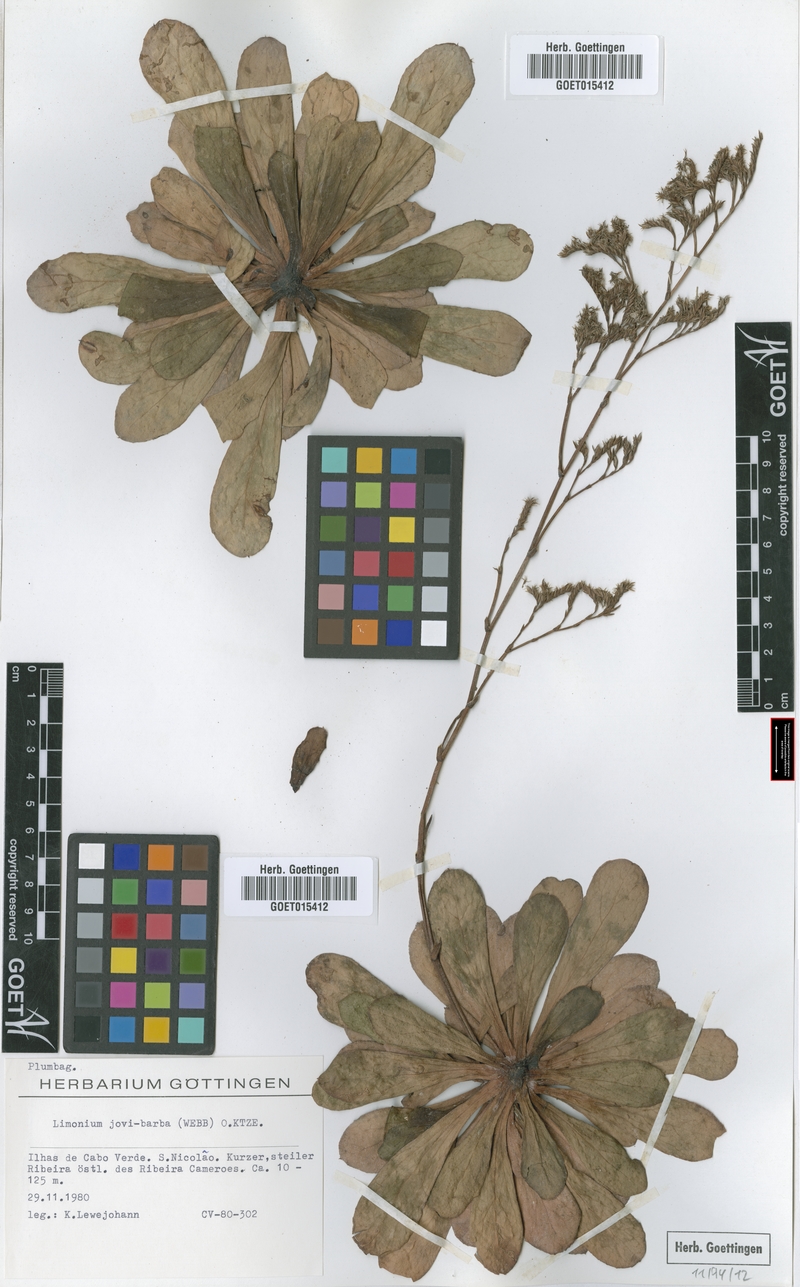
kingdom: Plantae
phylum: Tracheophyta
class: Magnoliopsida
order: Caryophyllales
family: Plumbaginaceae
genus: Limonium
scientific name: Limonium jovibarba
